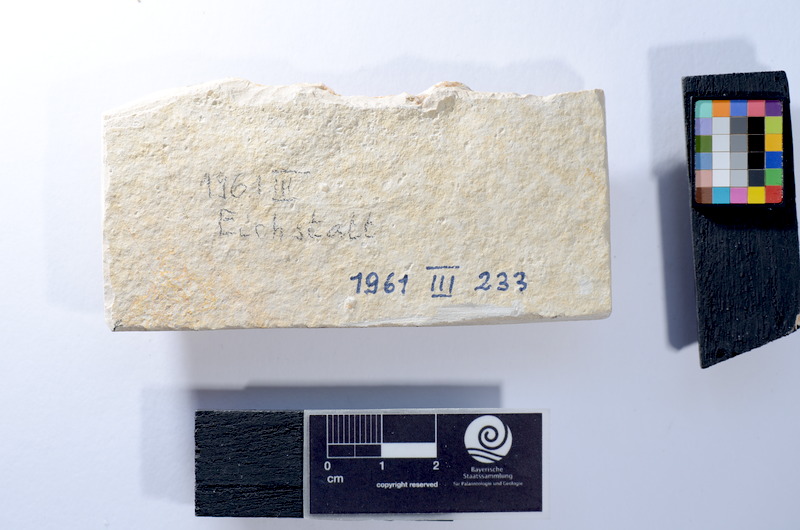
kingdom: Animalia
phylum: Chordata
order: Elopiformes
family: Anaethalionidae
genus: Anaethalion
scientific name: Anaethalion knorri
